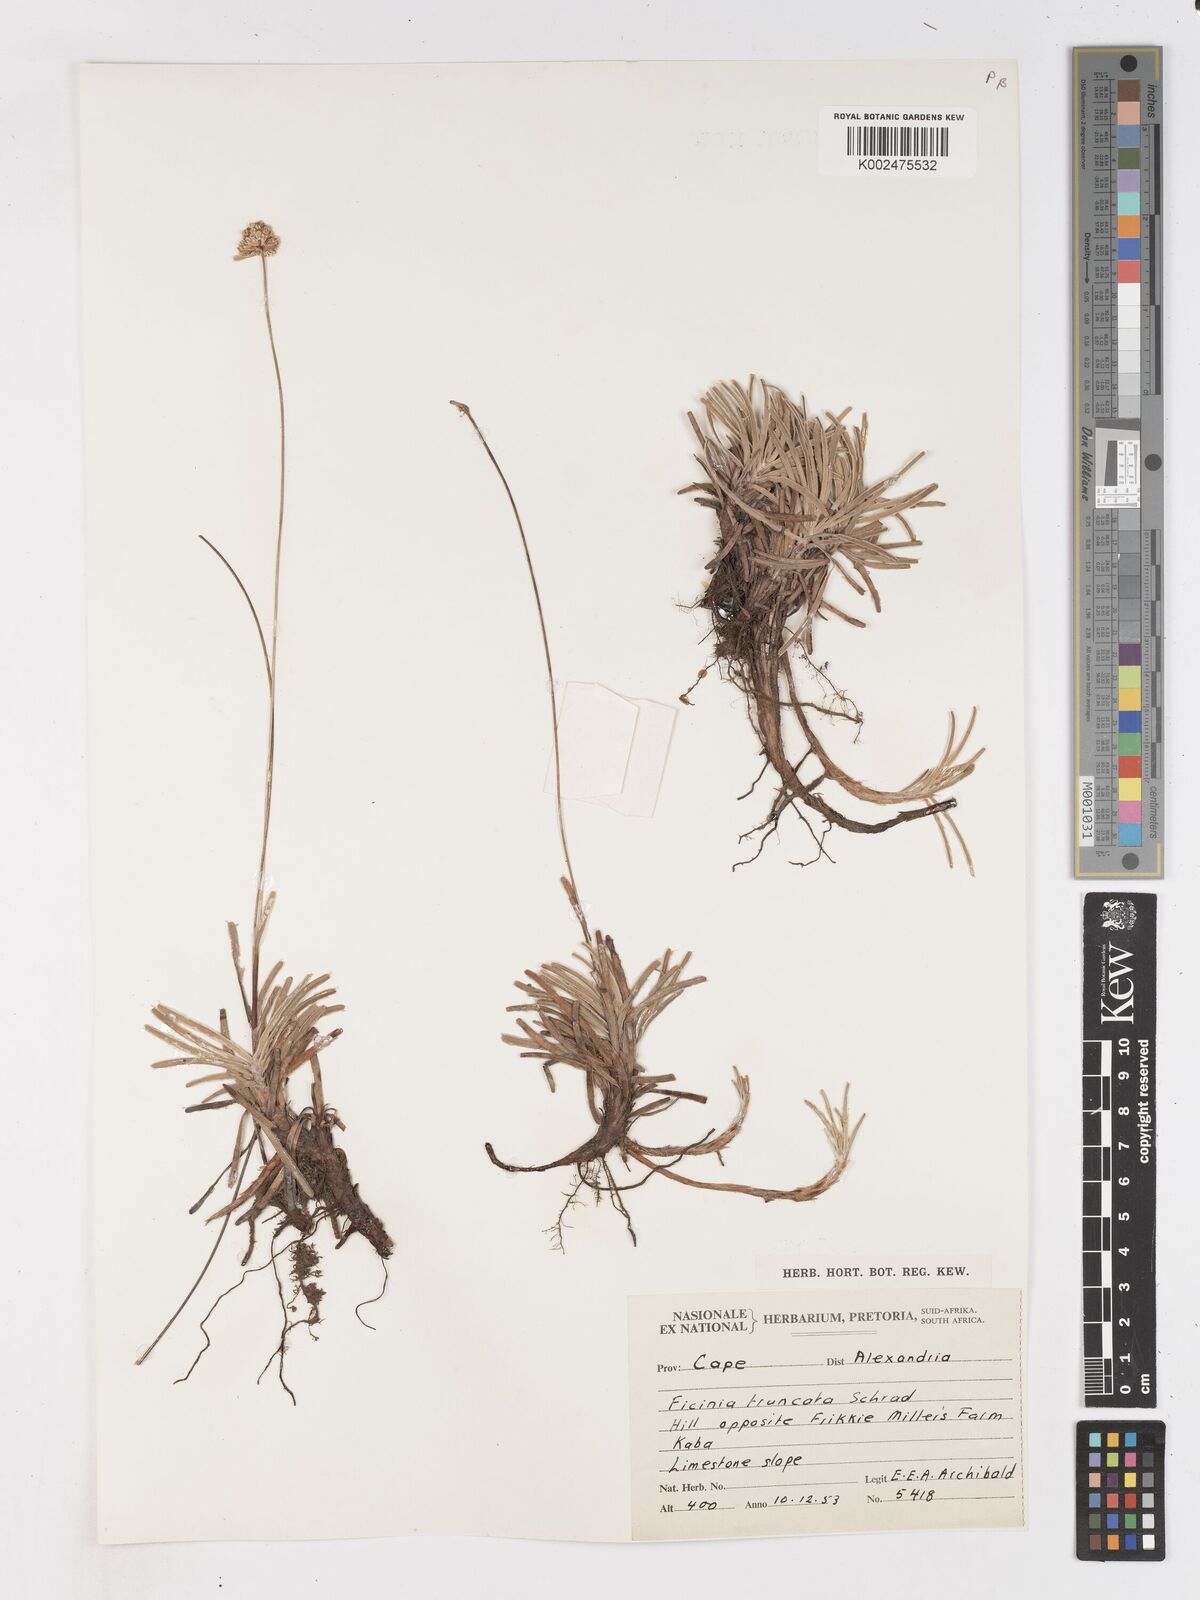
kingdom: Plantae
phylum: Tracheophyta
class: Liliopsida
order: Poales
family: Cyperaceae
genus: Ficinia
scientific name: Ficinia truncata
